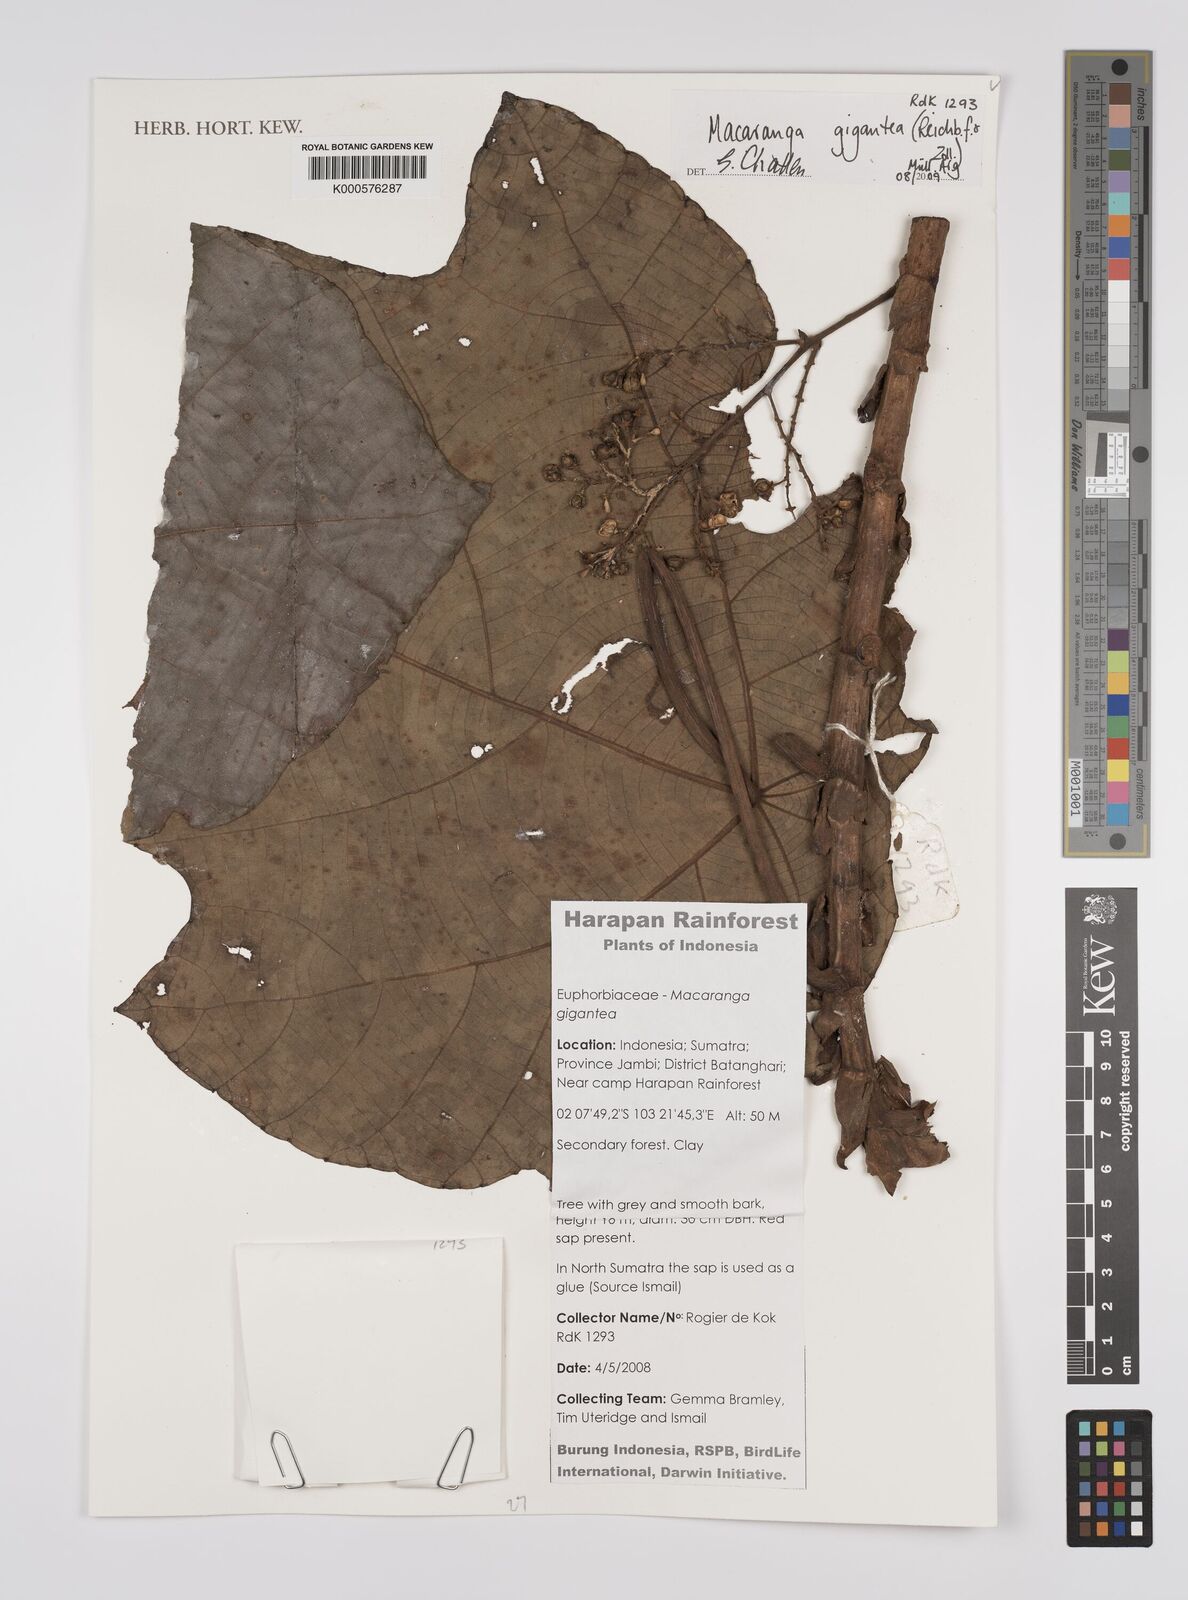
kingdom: Plantae
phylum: Tracheophyta
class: Magnoliopsida
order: Malpighiales
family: Euphorbiaceae
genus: Macaranga
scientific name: Macaranga
